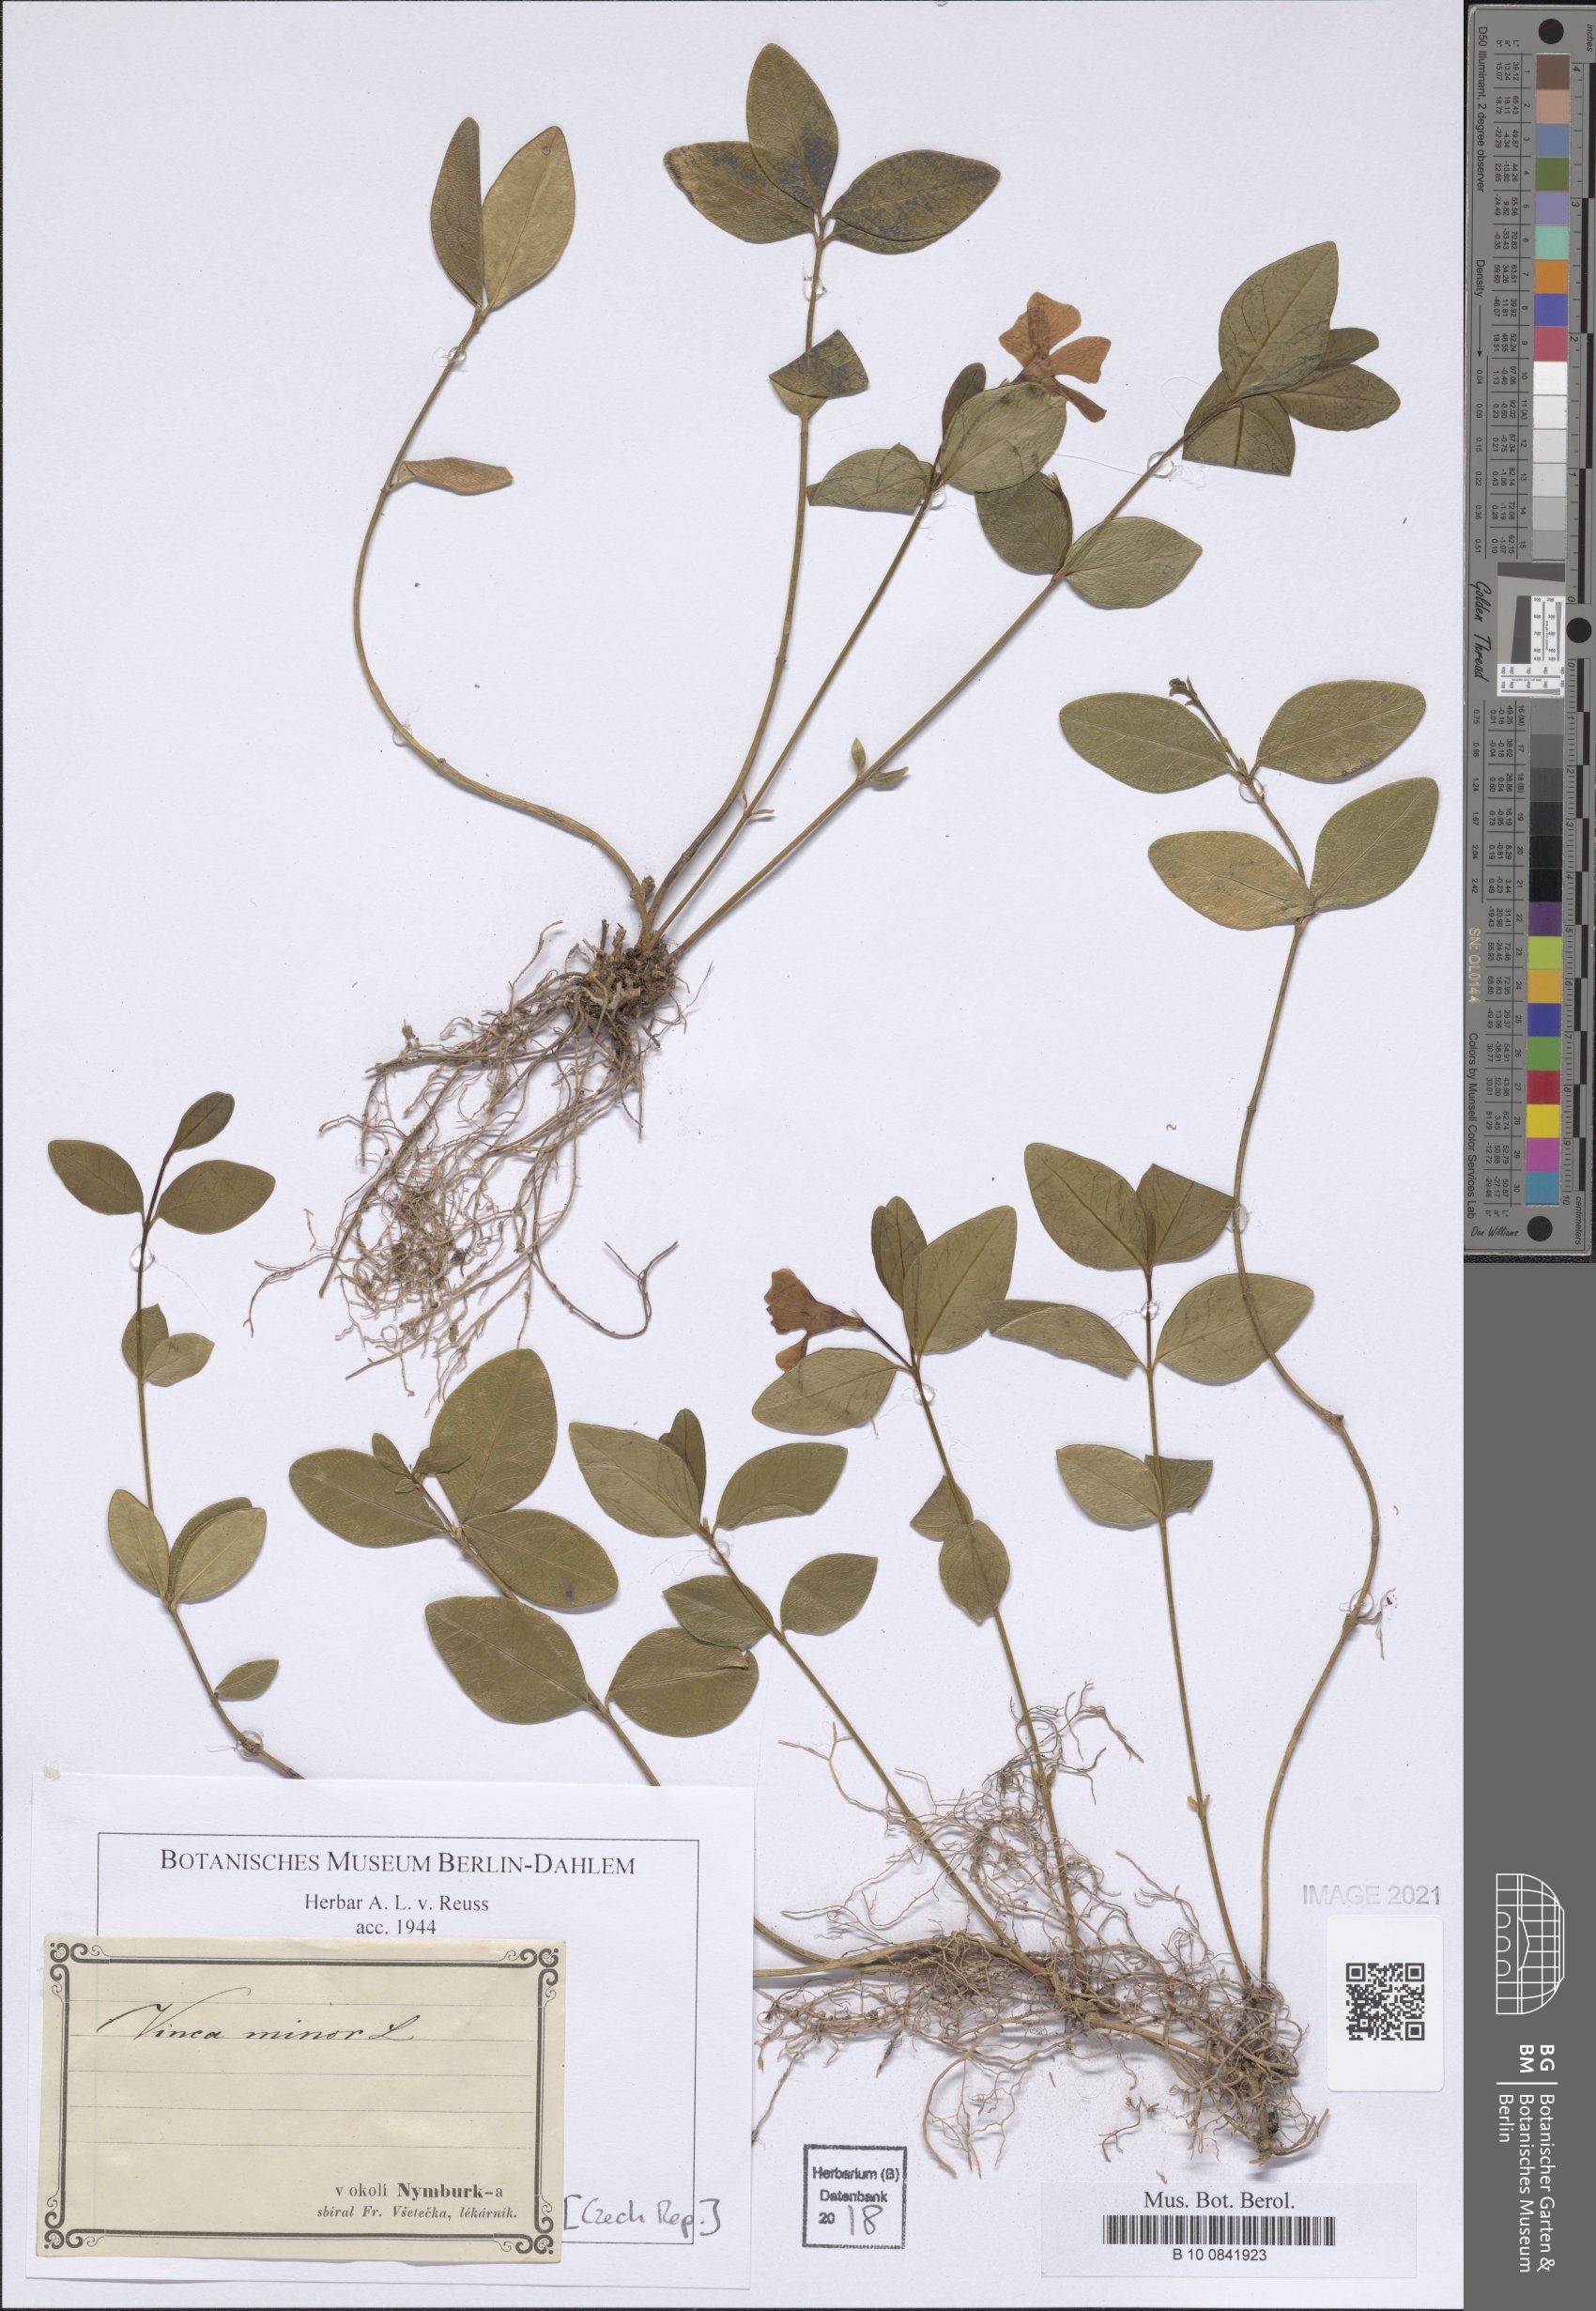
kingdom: Plantae
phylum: Tracheophyta
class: Magnoliopsida
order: Gentianales
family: Apocynaceae
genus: Vinca
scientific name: Vinca minor
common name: Lesser periwinkle
